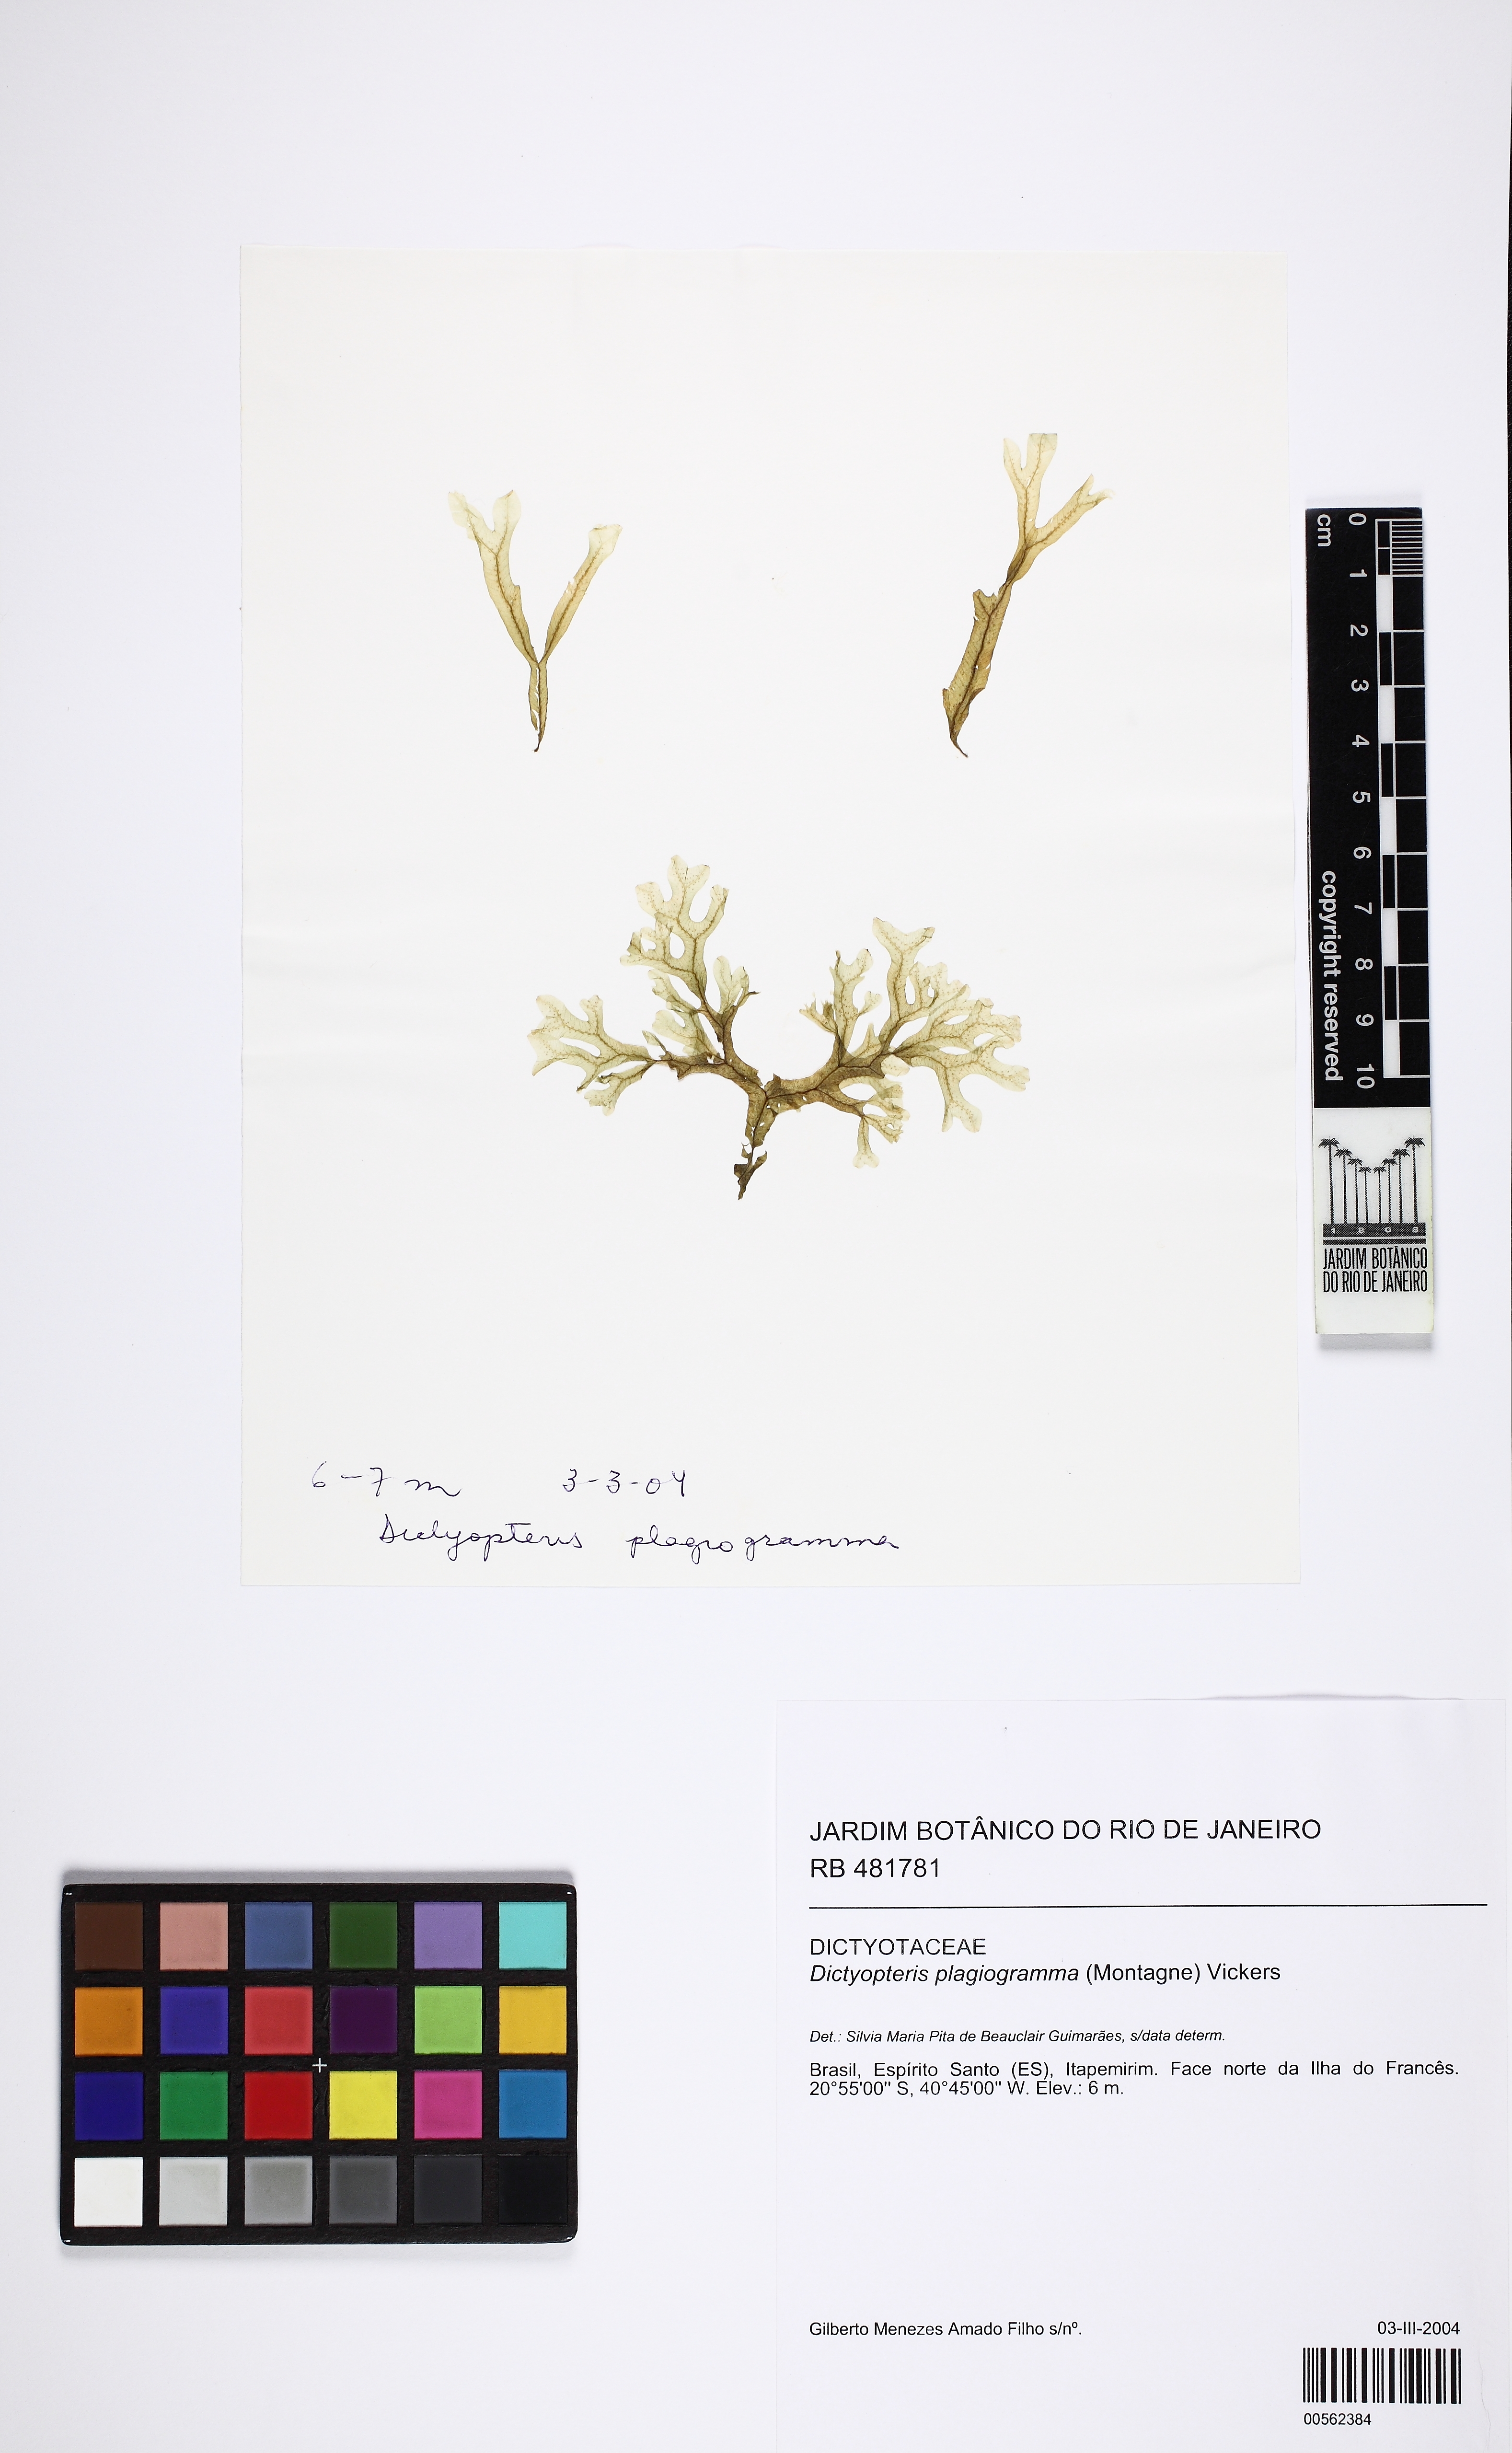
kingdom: Chromista
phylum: Ochrophyta
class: Phaeophyceae
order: Dictyotales
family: Dictyotaceae
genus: Dictyopteris
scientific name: Dictyopteris plagiogramma
